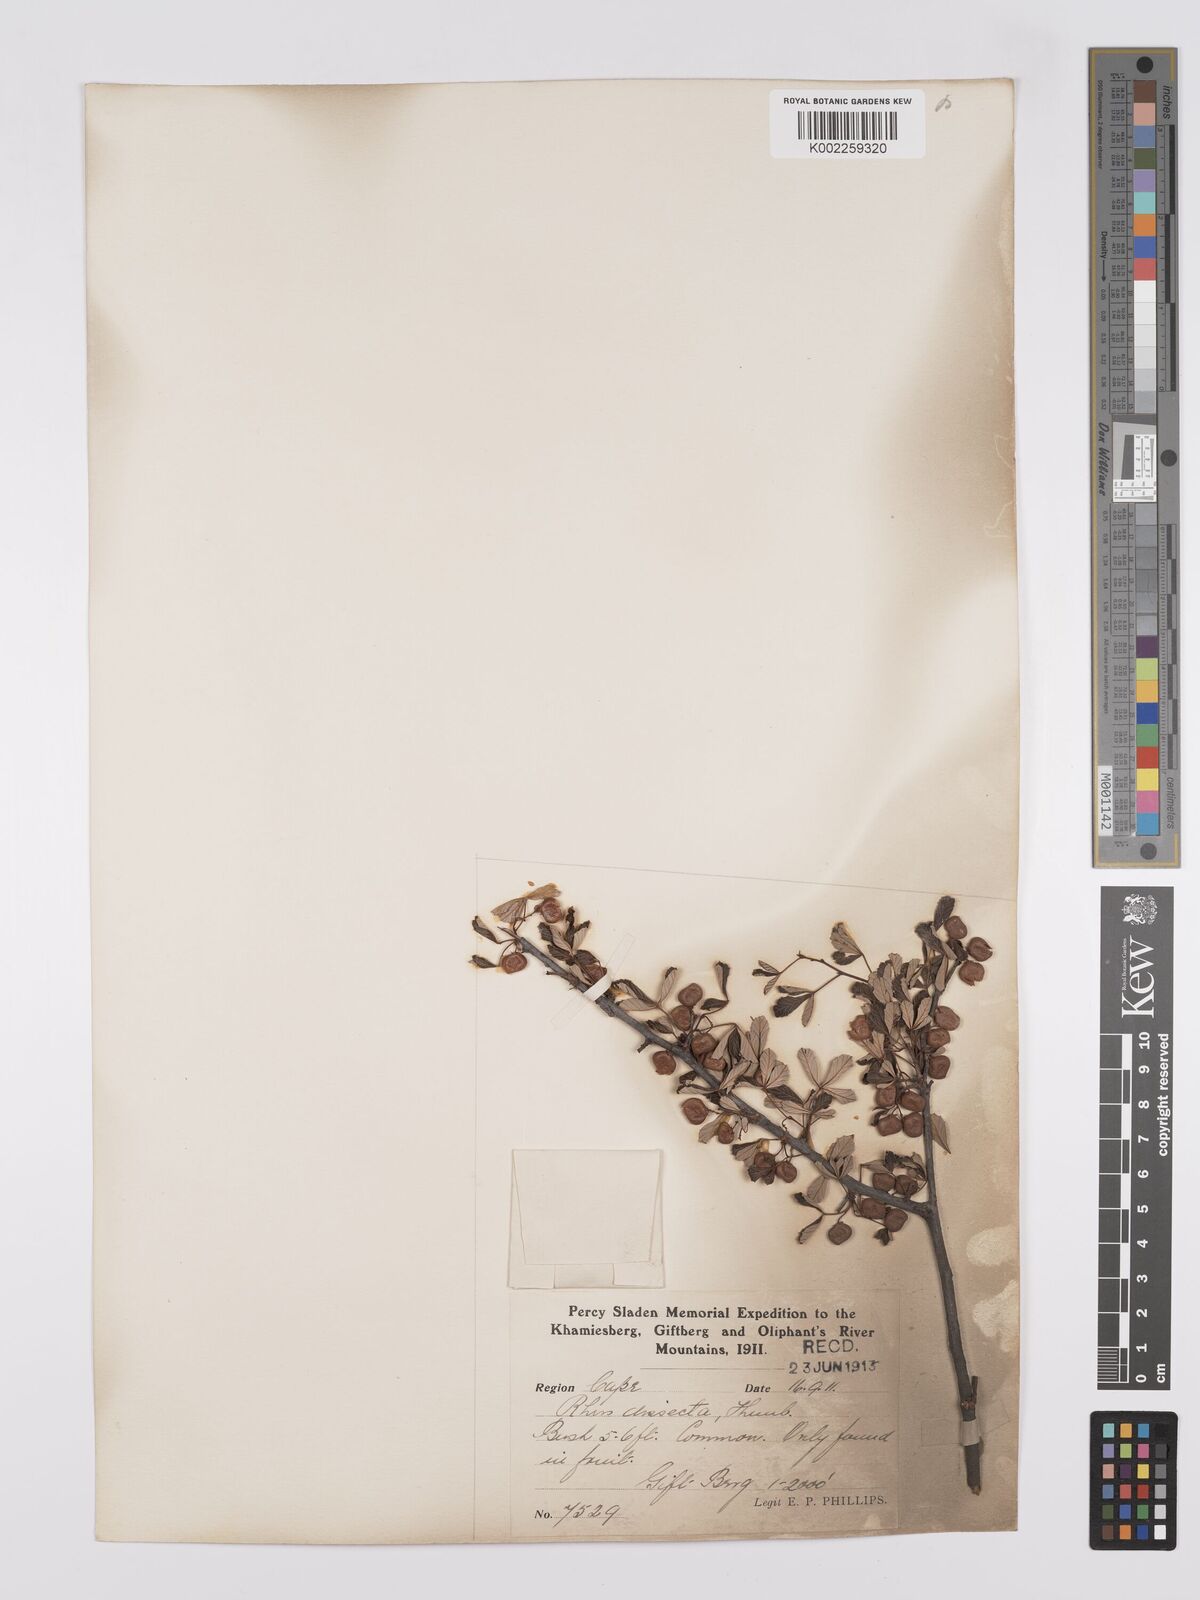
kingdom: Plantae
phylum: Tracheophyta
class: Magnoliopsida
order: Sapindales
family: Anacardiaceae
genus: Searsia
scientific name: Searsia dissecta
